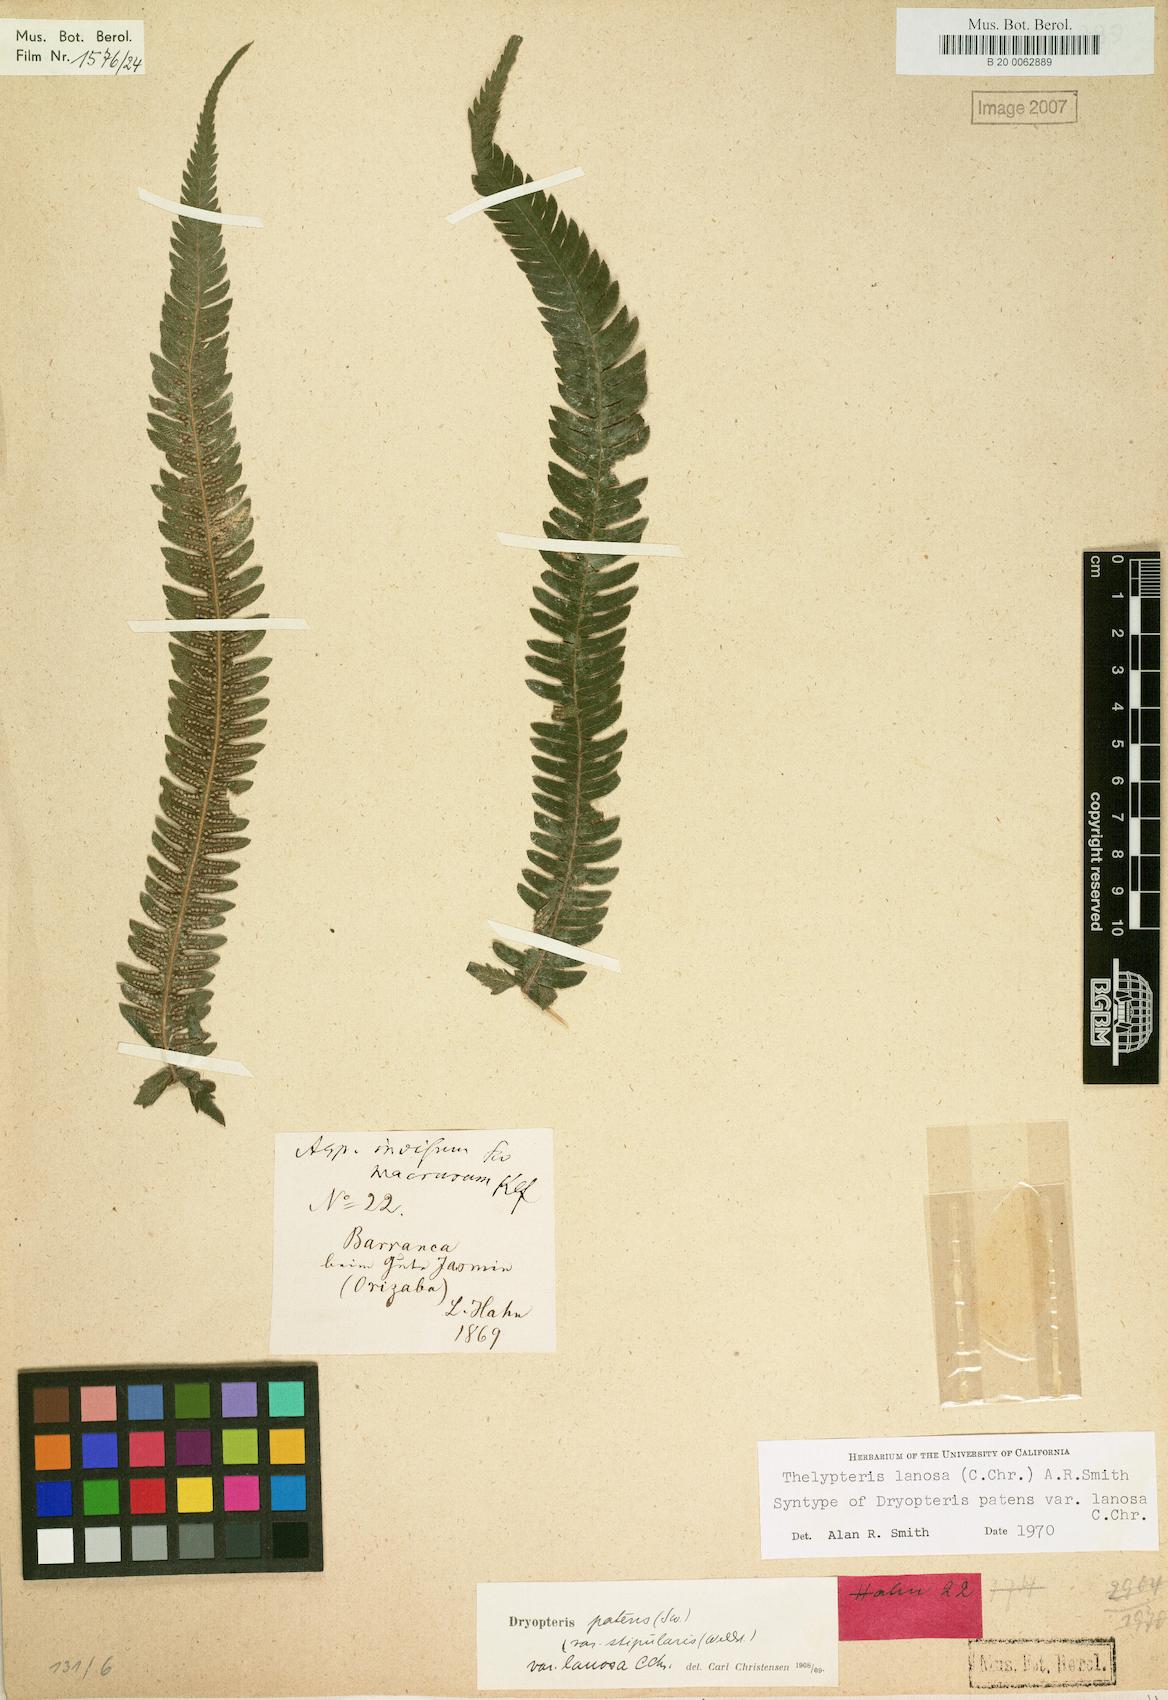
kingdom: Plantae
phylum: Tracheophyta
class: Polypodiopsida
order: Polypodiales
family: Thelypteridaceae
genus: Pelazoneuron
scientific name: Pelazoneuron lanosum
